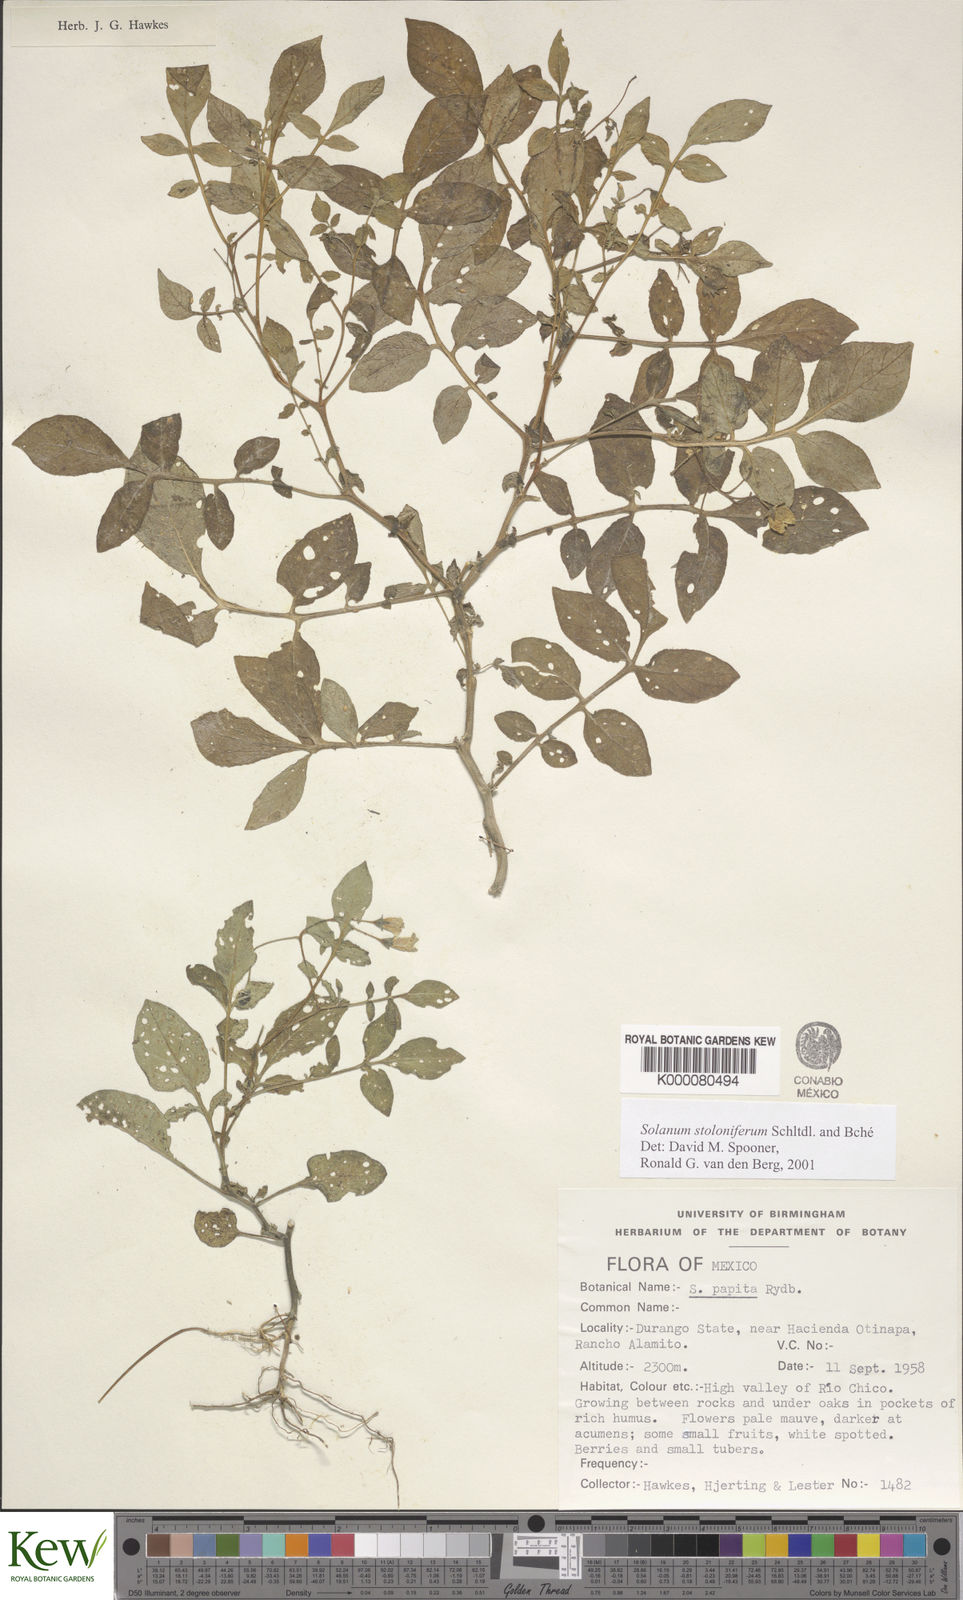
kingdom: Plantae
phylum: Tracheophyta
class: Magnoliopsida
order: Solanales
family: Solanaceae
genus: Solanum
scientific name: Solanum stoloniferum
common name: Fendler's nighshade
